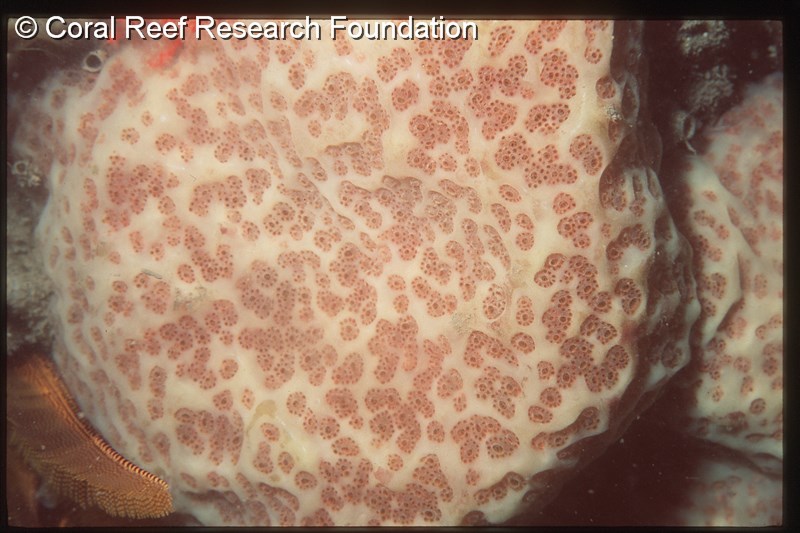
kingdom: Animalia
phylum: Chordata
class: Ascidiacea
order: Aplousobranchia
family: Polyclinidae
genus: Synoicum
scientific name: Synoicum australe
